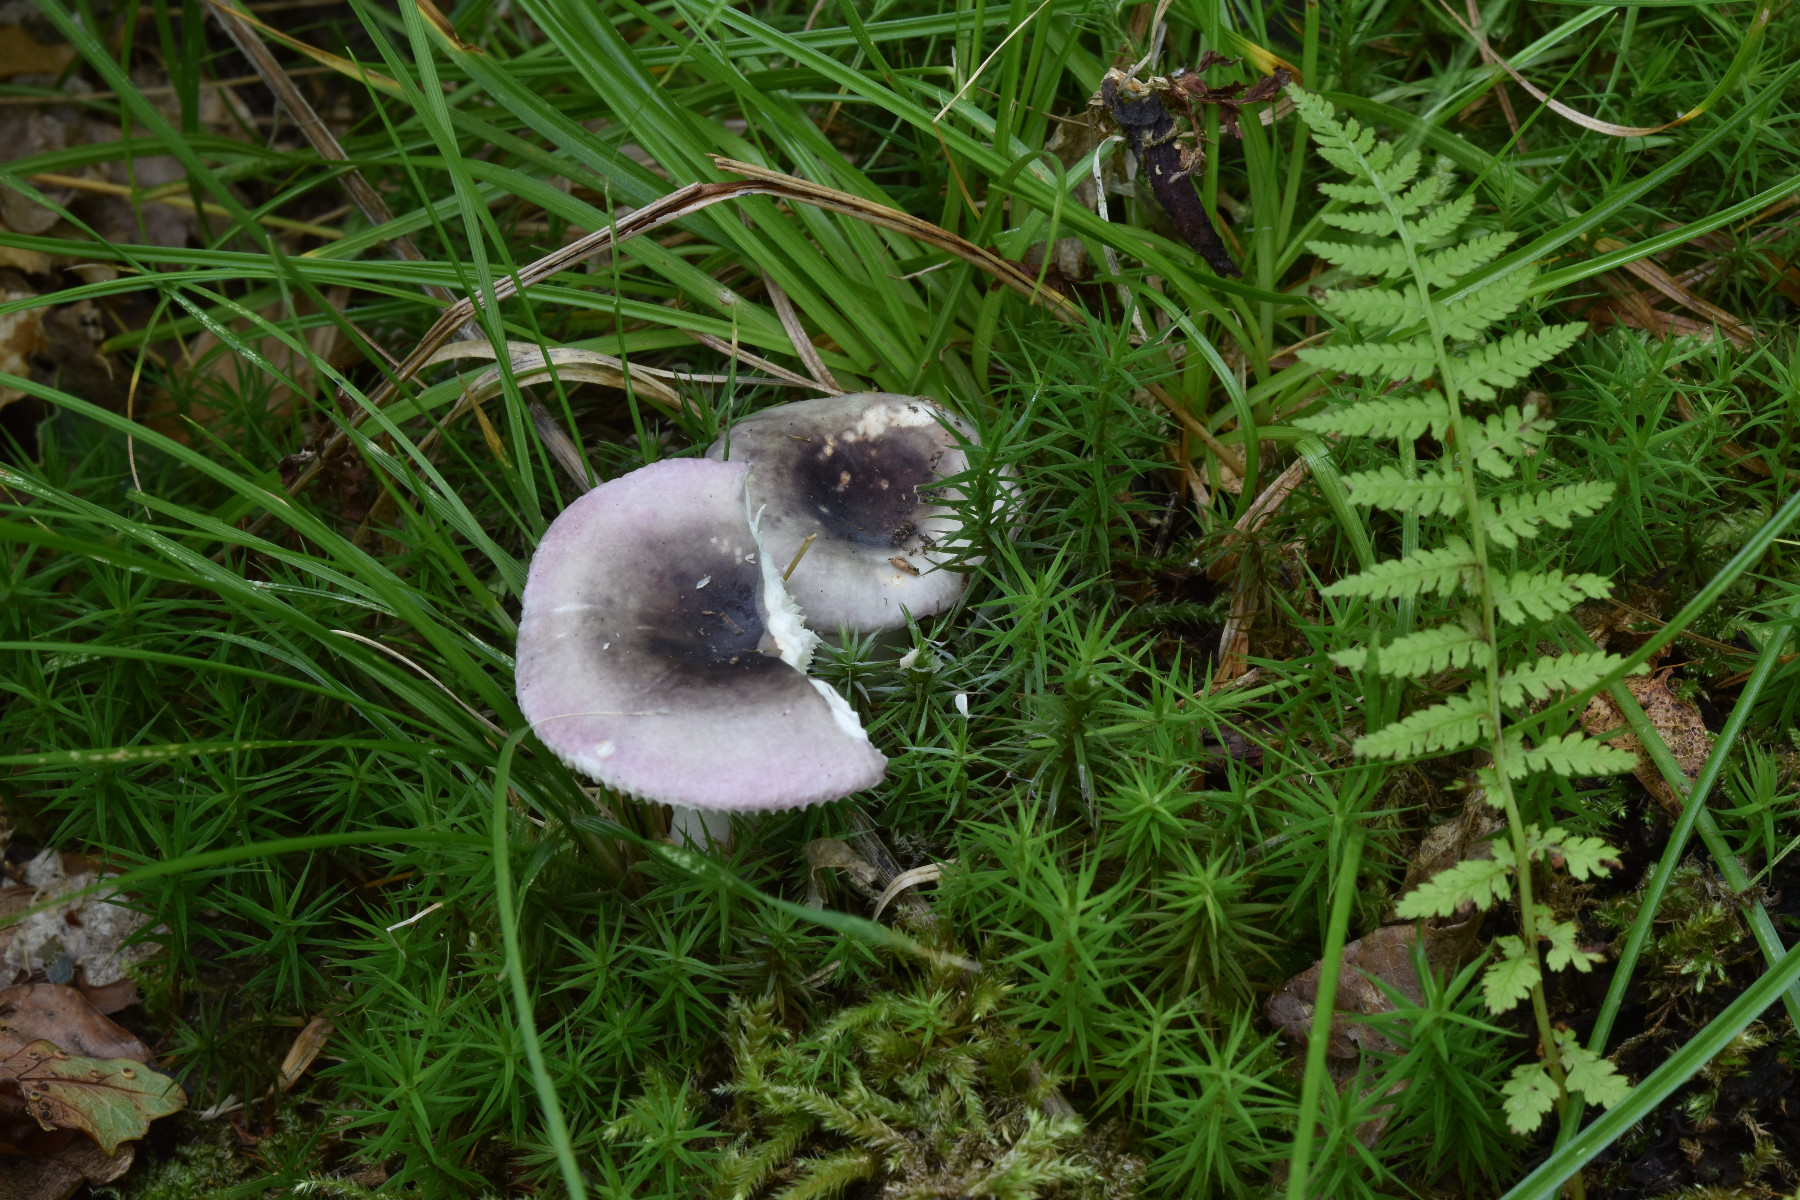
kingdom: Fungi
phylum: Basidiomycota
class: Agaricomycetes
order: Russulales
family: Russulaceae
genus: Russula
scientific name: Russula fragilis
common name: savbladet skørhat
